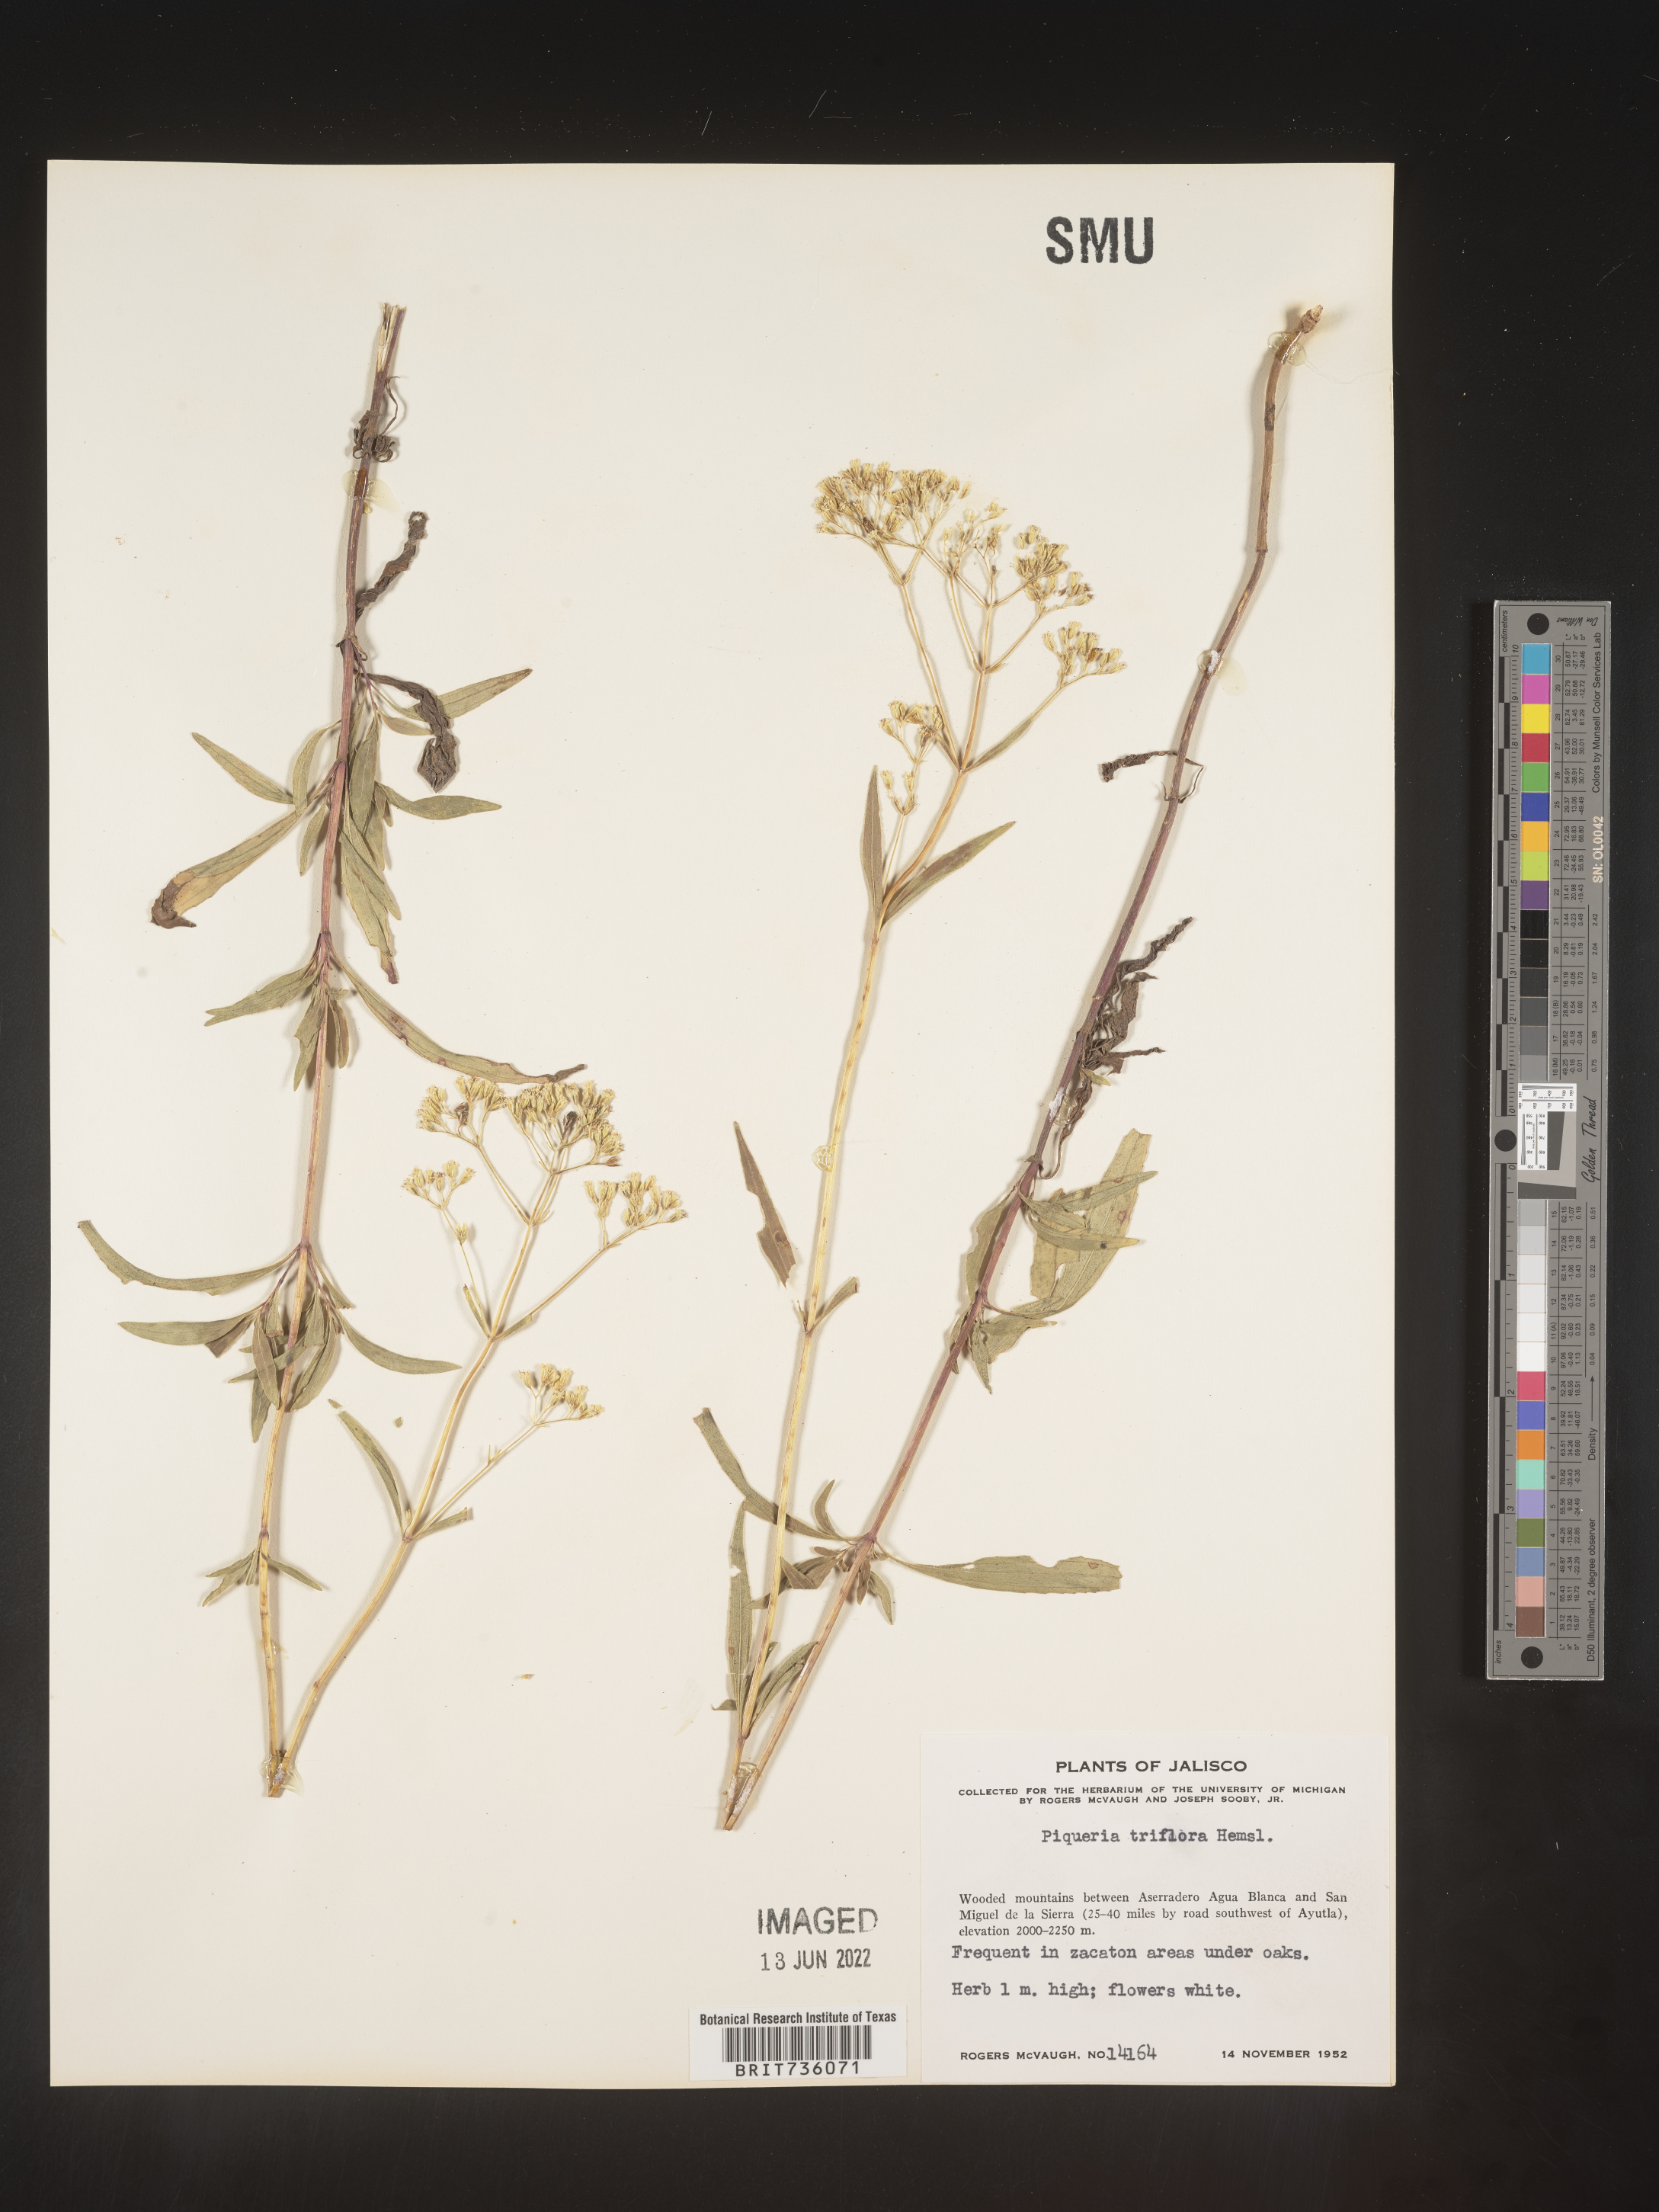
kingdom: Plantae
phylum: Tracheophyta
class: Magnoliopsida
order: Asterales
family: Asteraceae
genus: Piqueria
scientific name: Piqueria
